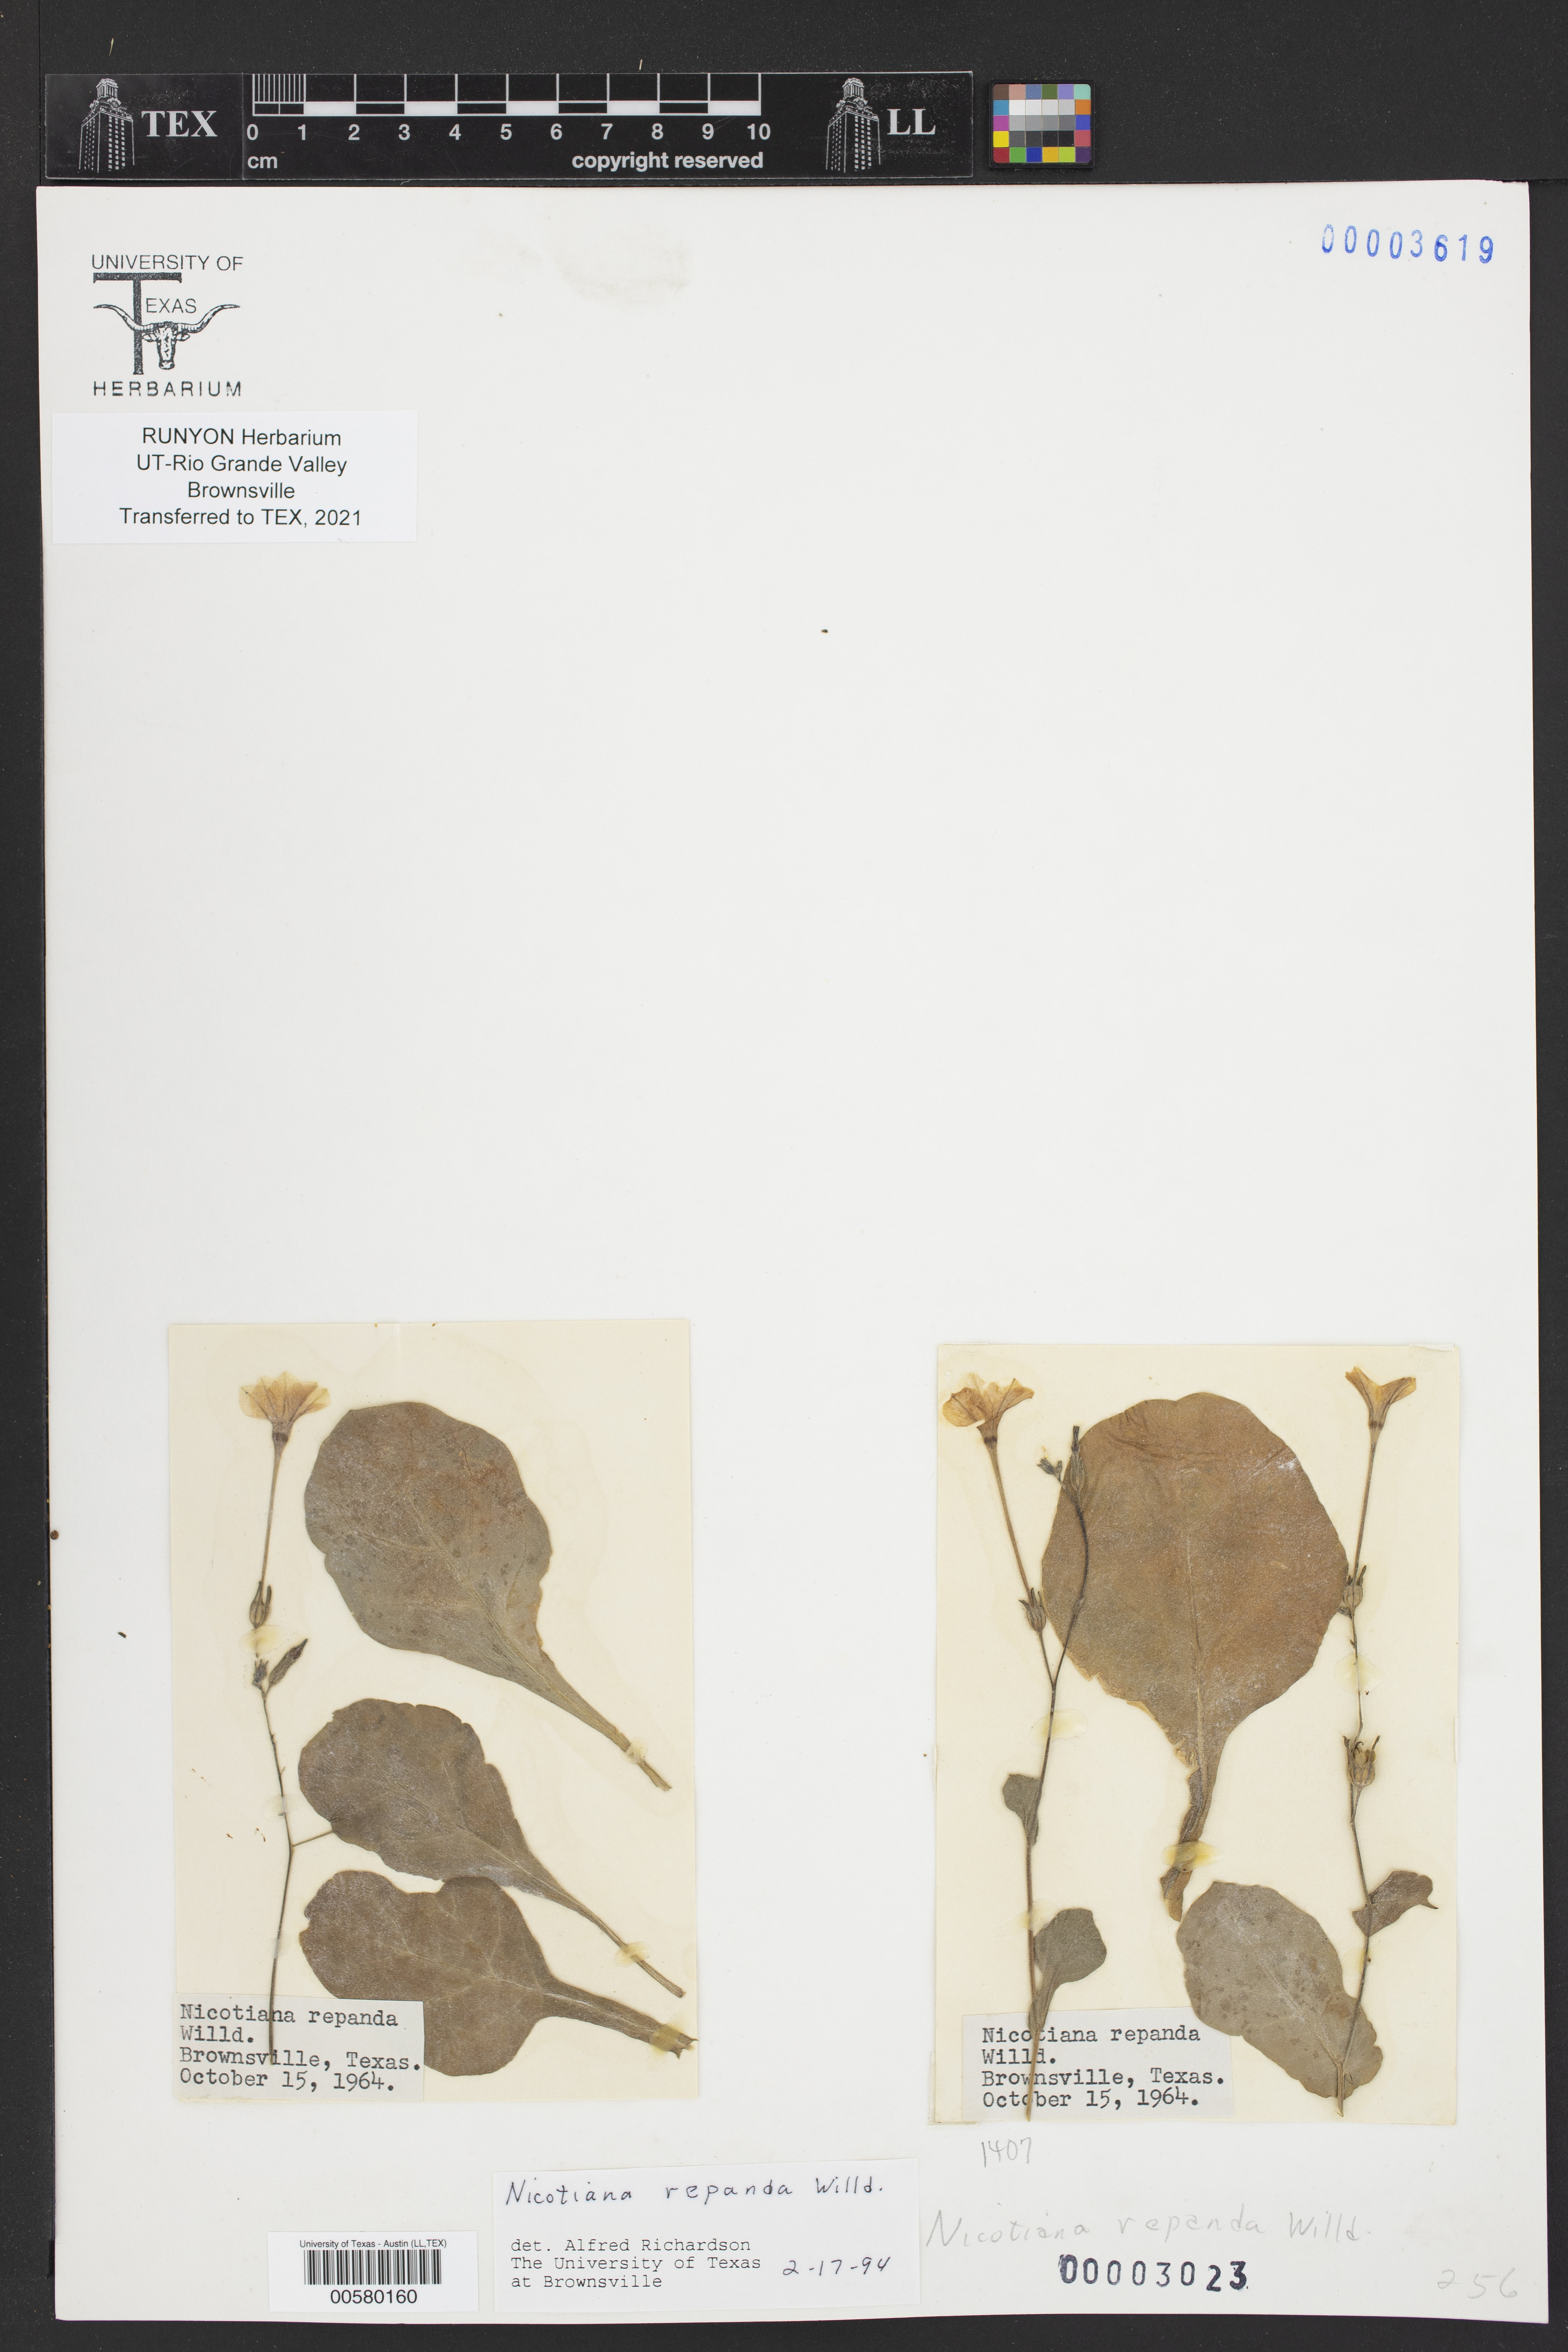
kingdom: Plantae
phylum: Tracheophyta
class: Magnoliopsida
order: Solanales
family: Solanaceae
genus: Nicotiana
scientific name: Nicotiana repanda
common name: Fiddle-leaf tobacco
